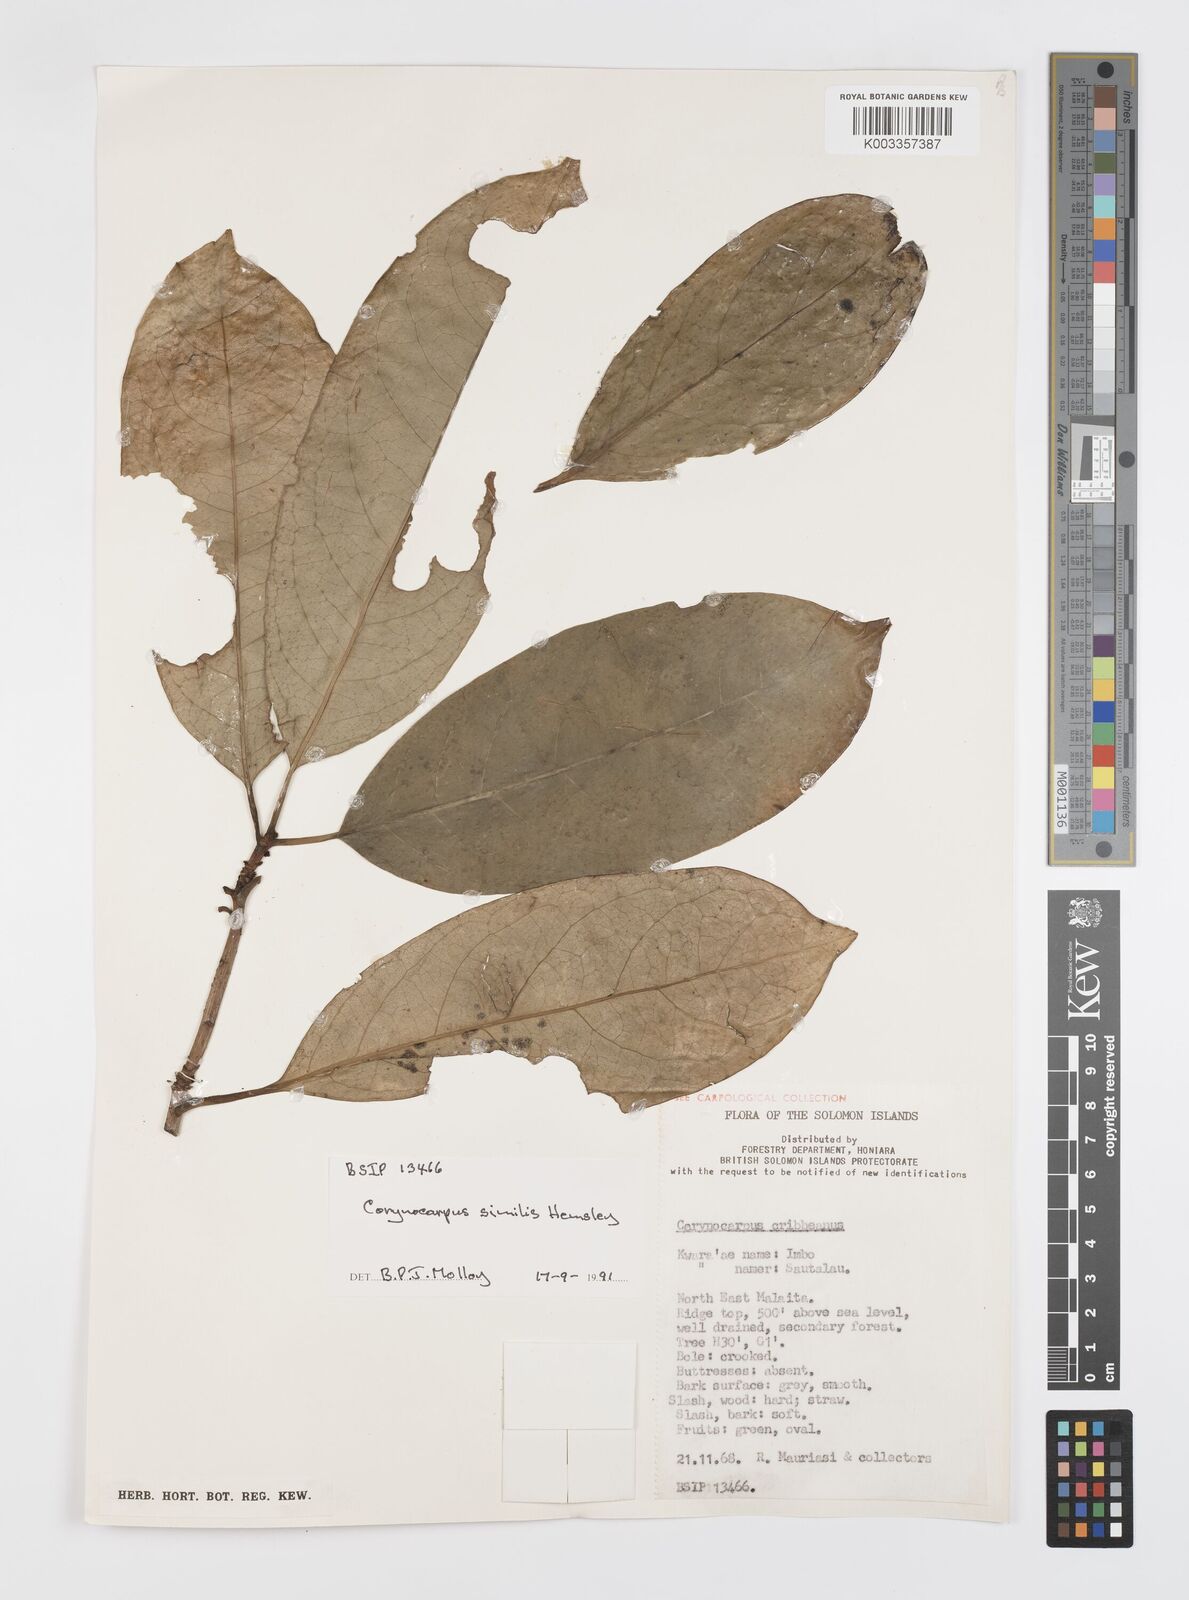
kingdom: Plantae
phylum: Tracheophyta
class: Magnoliopsida
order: Cucurbitales
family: Corynocarpaceae
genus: Corynocarpus
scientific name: Corynocarpus similis
